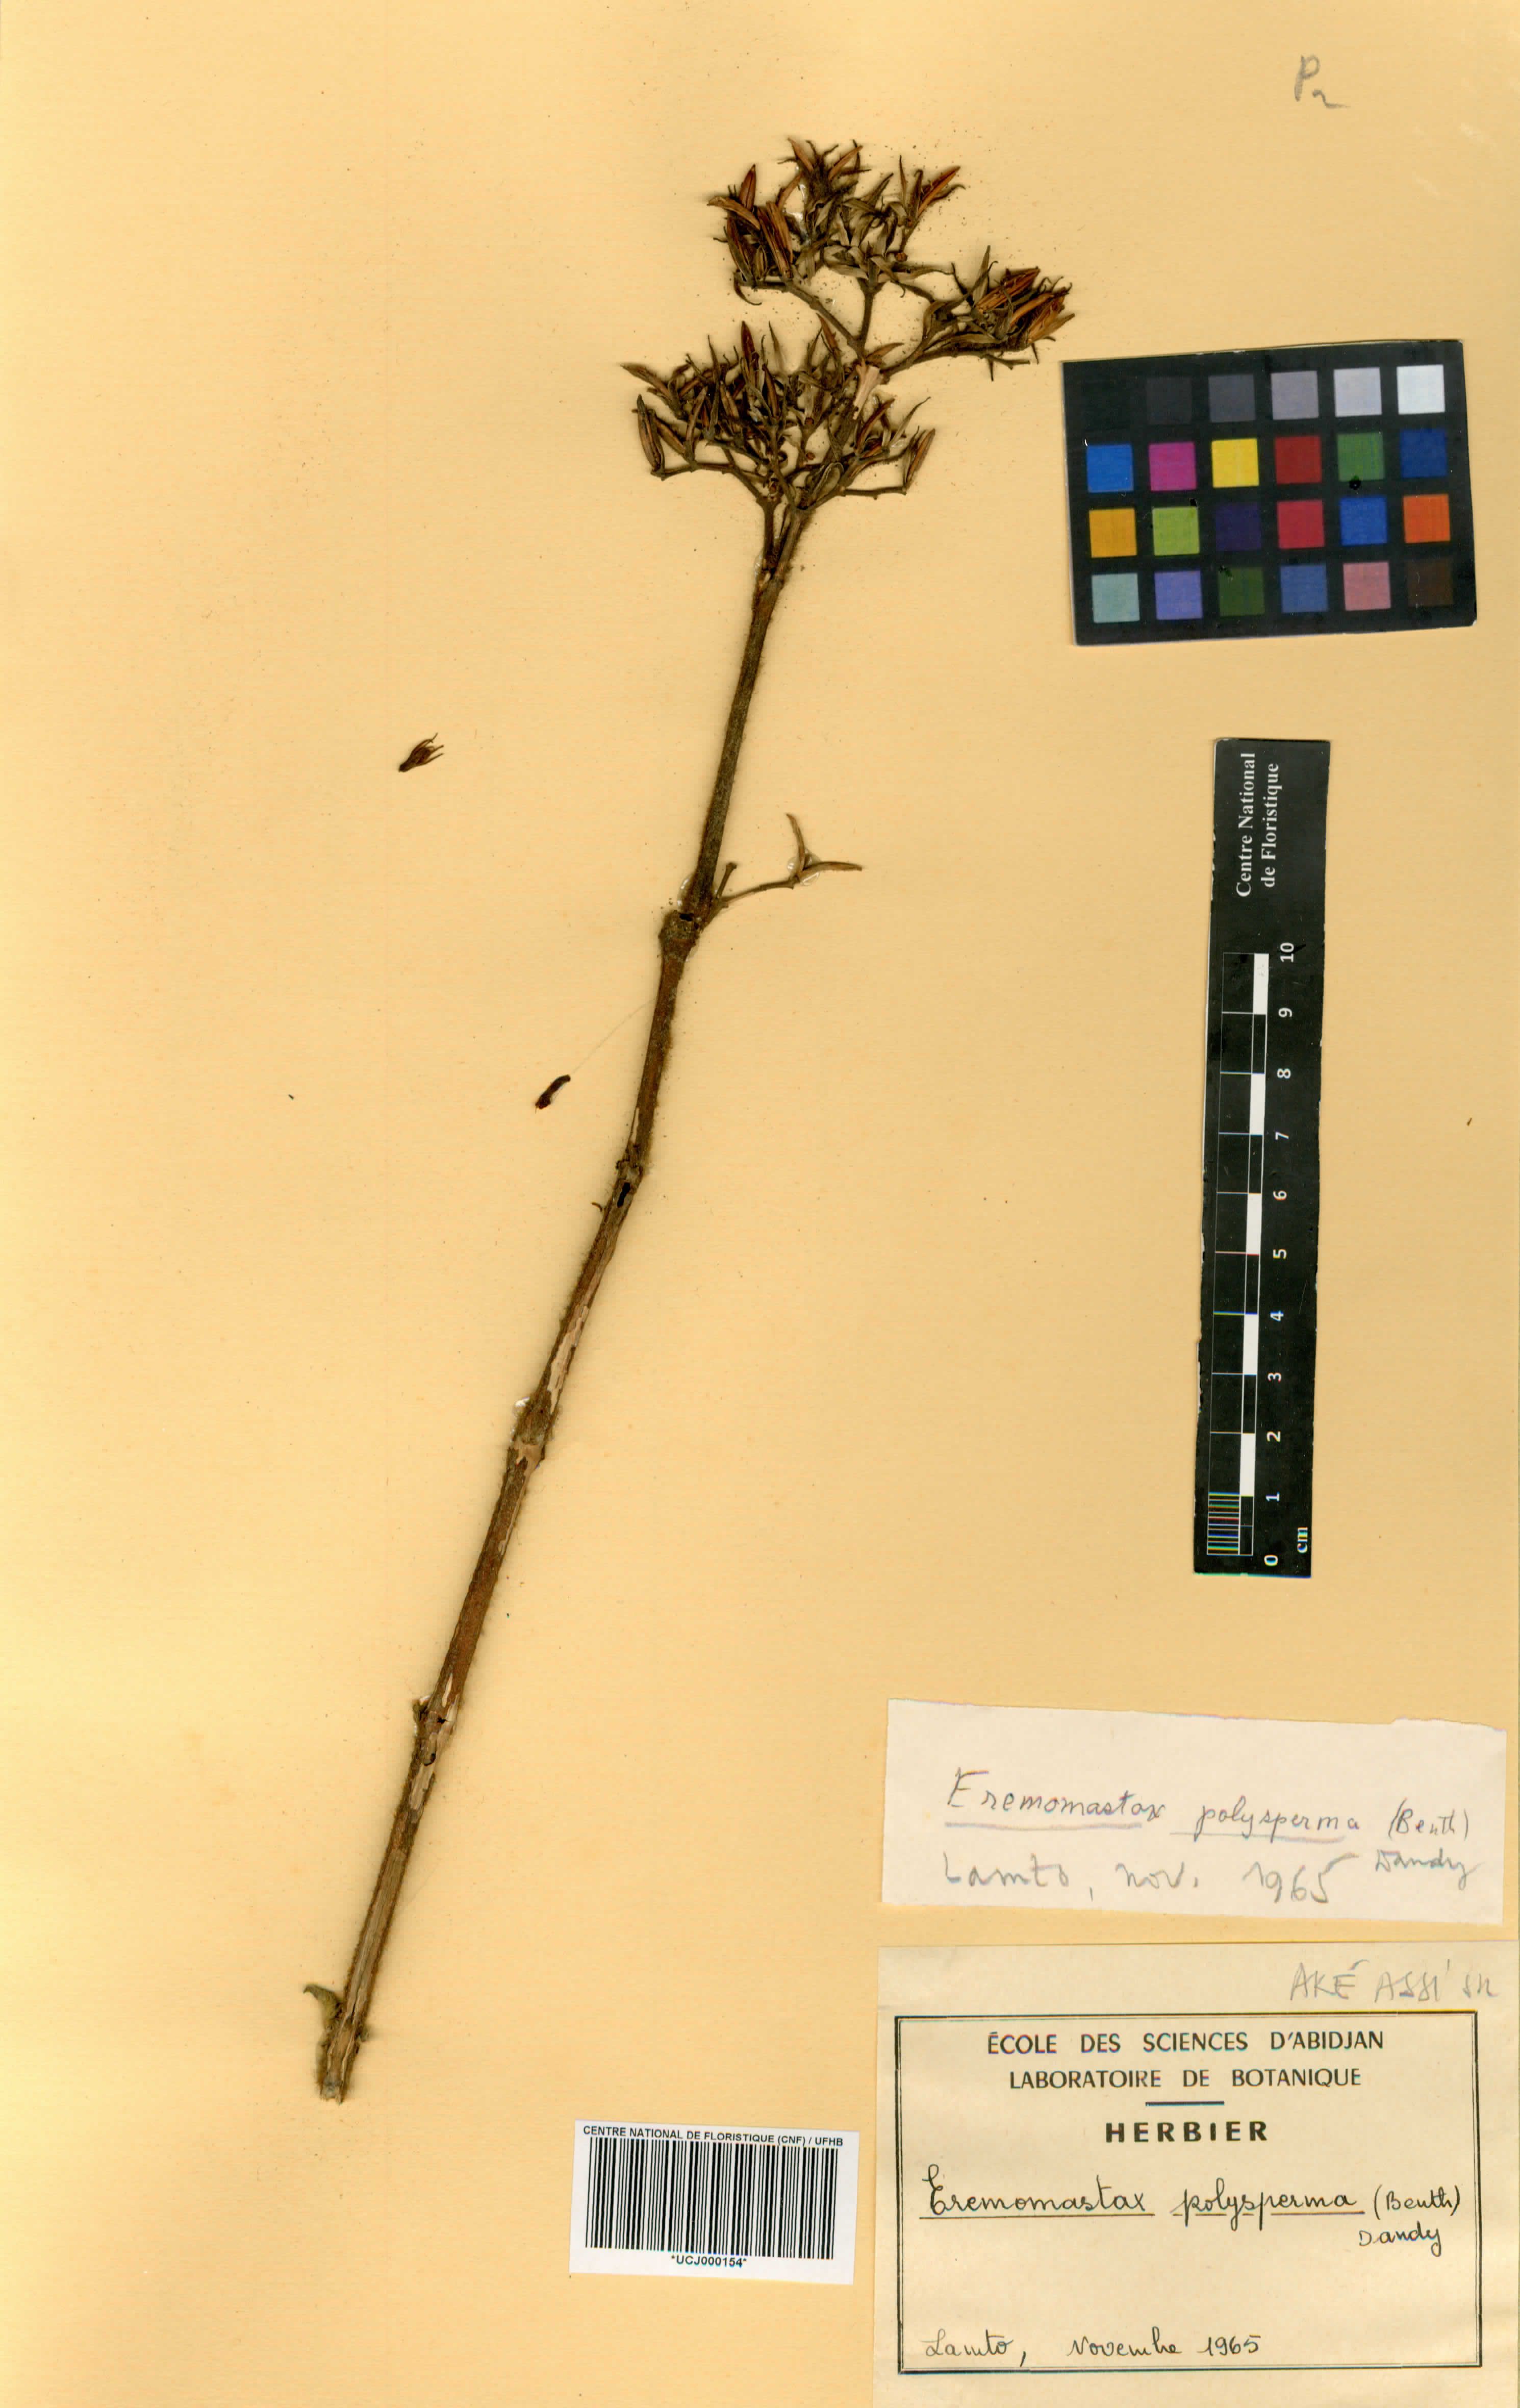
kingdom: Plantae
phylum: Tracheophyta
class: Magnoliopsida
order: Lamiales
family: Acanthaceae
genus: Eremomastax
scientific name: Eremomastax speciosa
